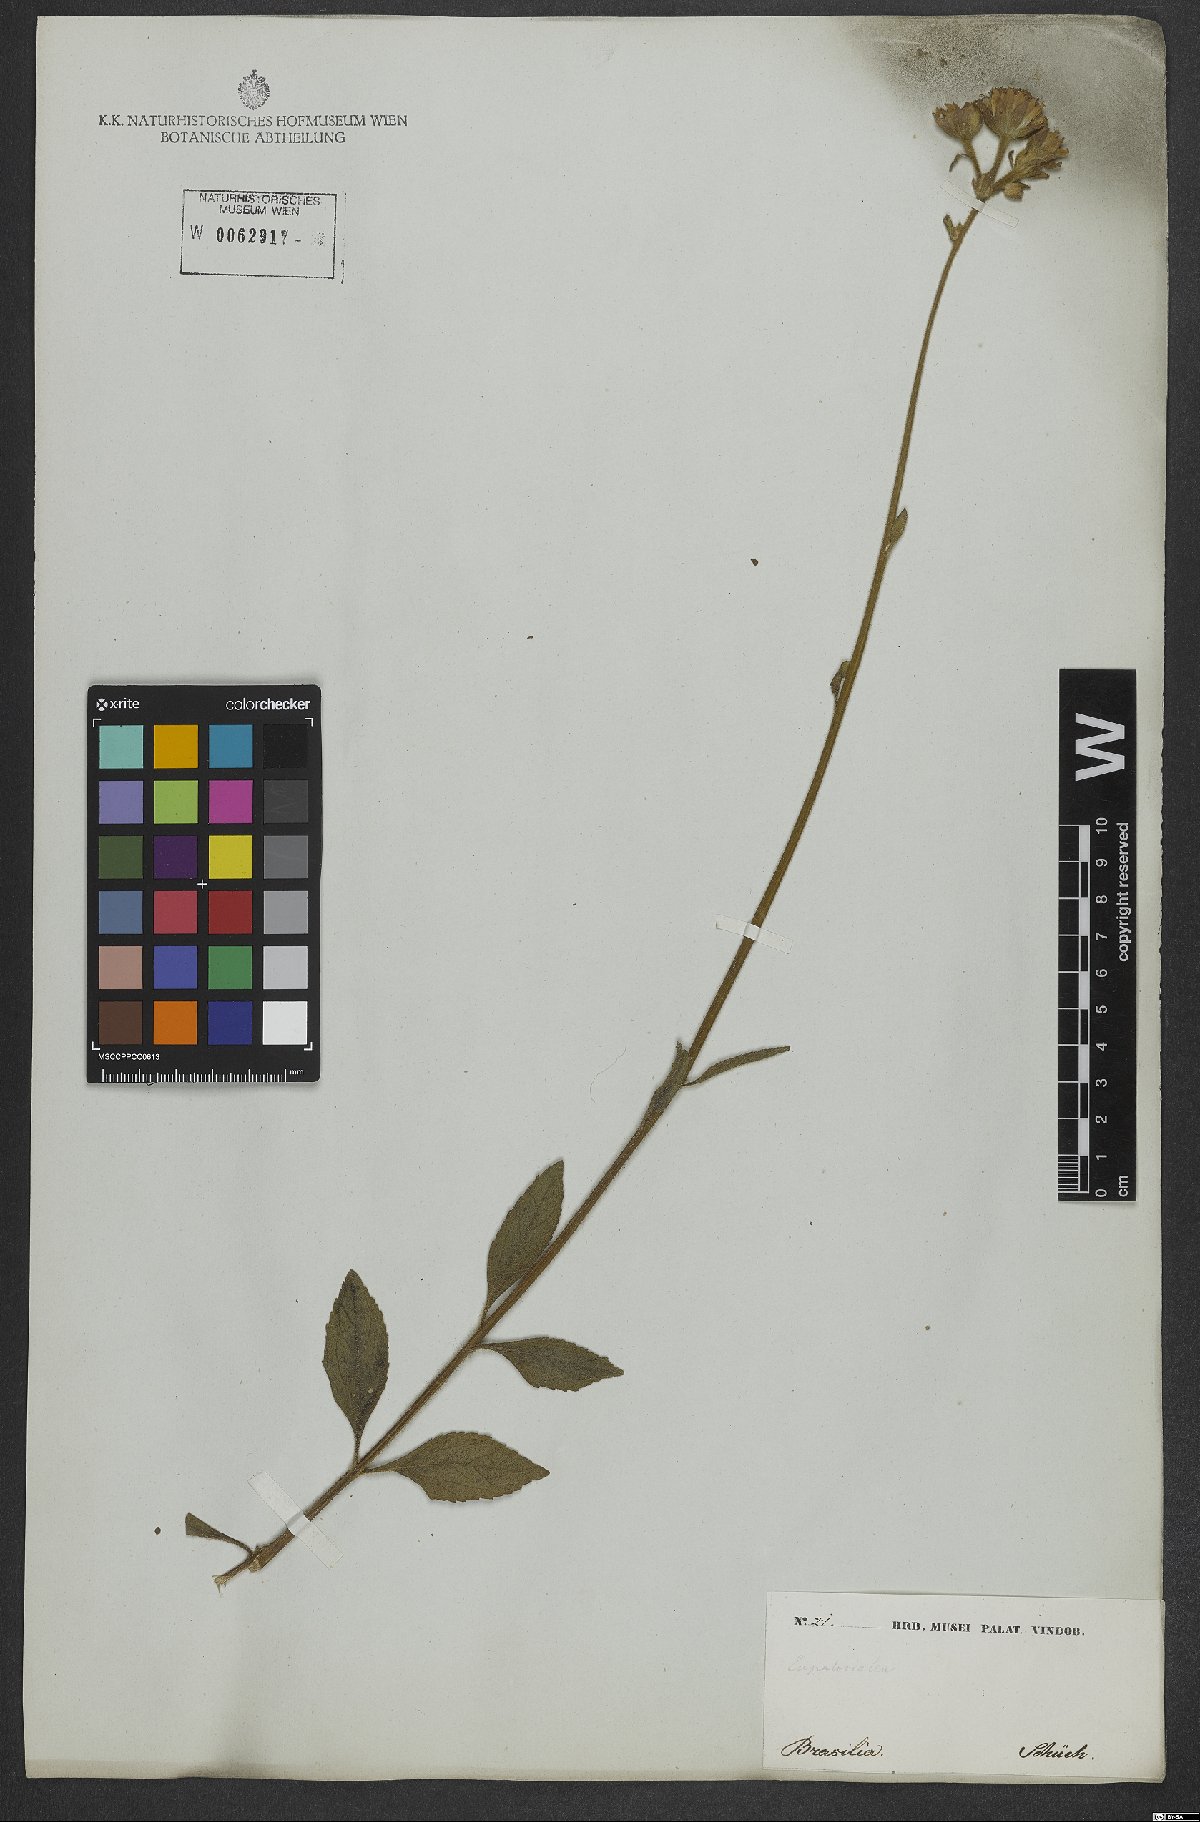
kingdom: Plantae
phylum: Tracheophyta
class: Magnoliopsida
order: Asterales
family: Asteraceae
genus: Campuloclinium
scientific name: Campuloclinium macrocephalum
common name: Pompomweed
